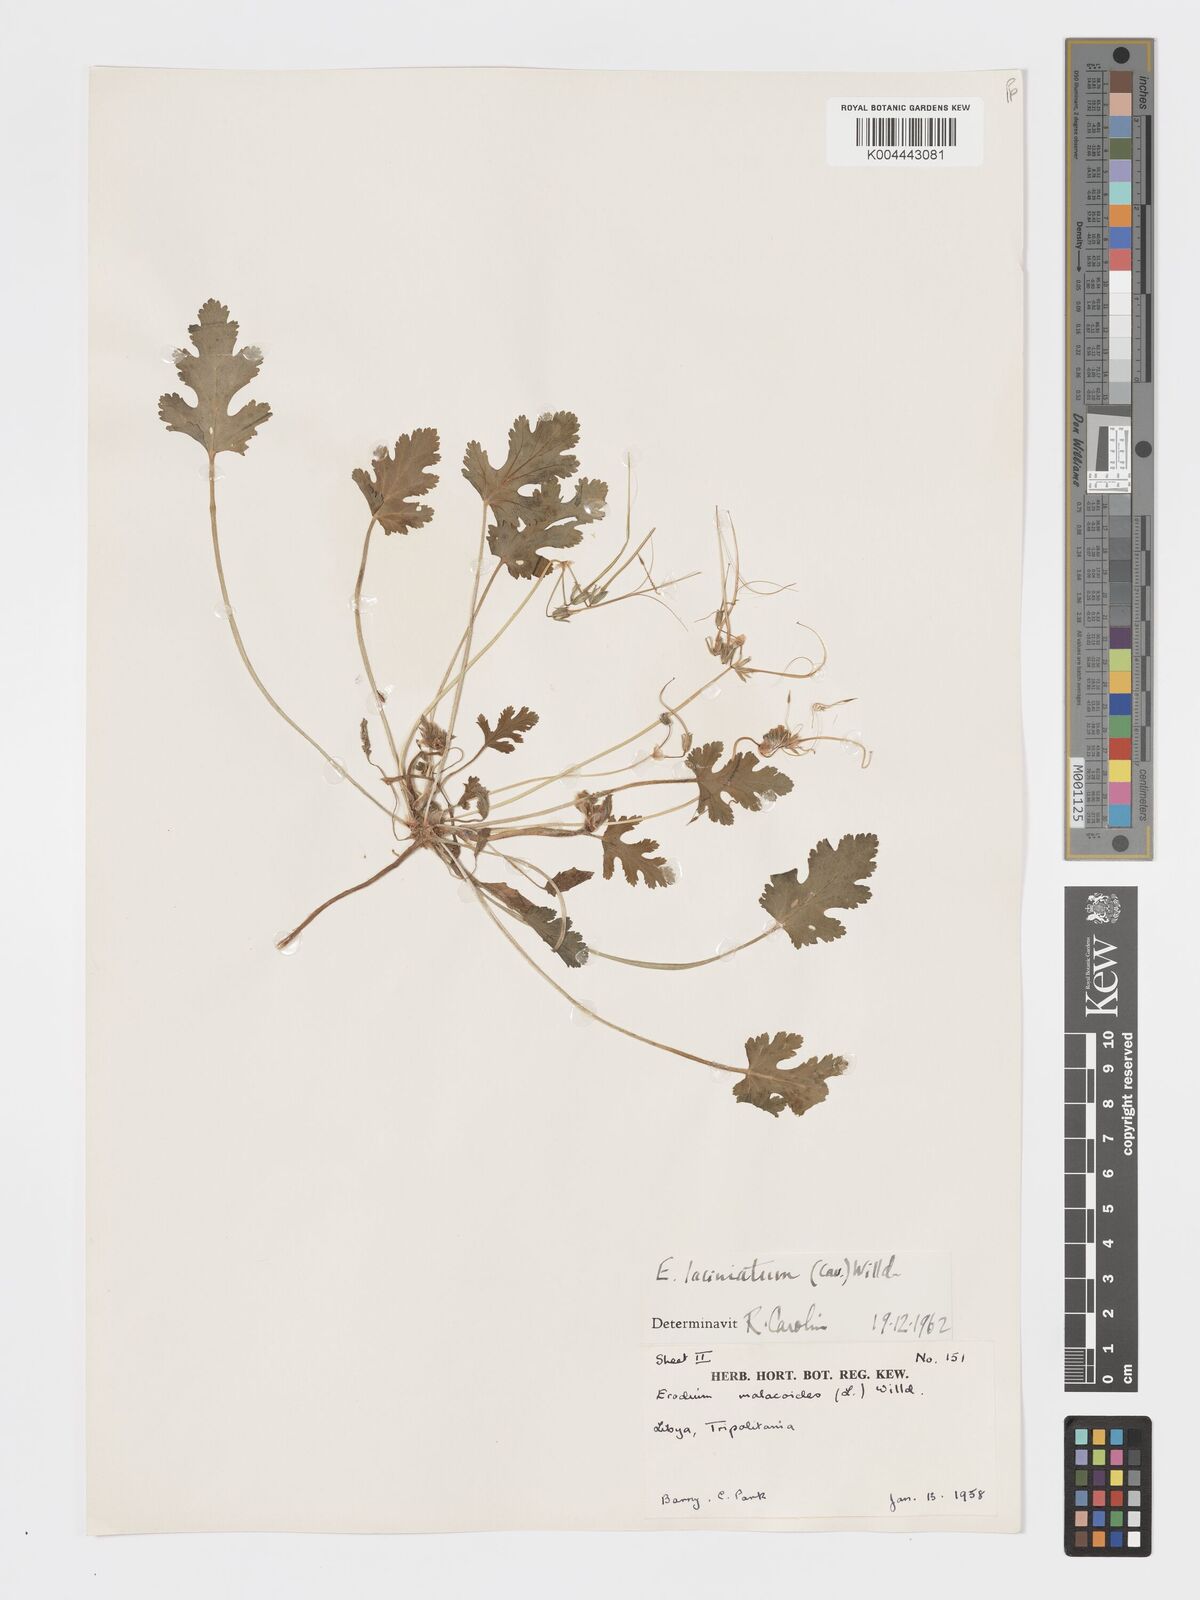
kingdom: Plantae
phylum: Tracheophyta
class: Magnoliopsida
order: Geraniales
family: Geraniaceae
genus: Erodium
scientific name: Erodium laciniatum
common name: Cutleaf stork's bill
